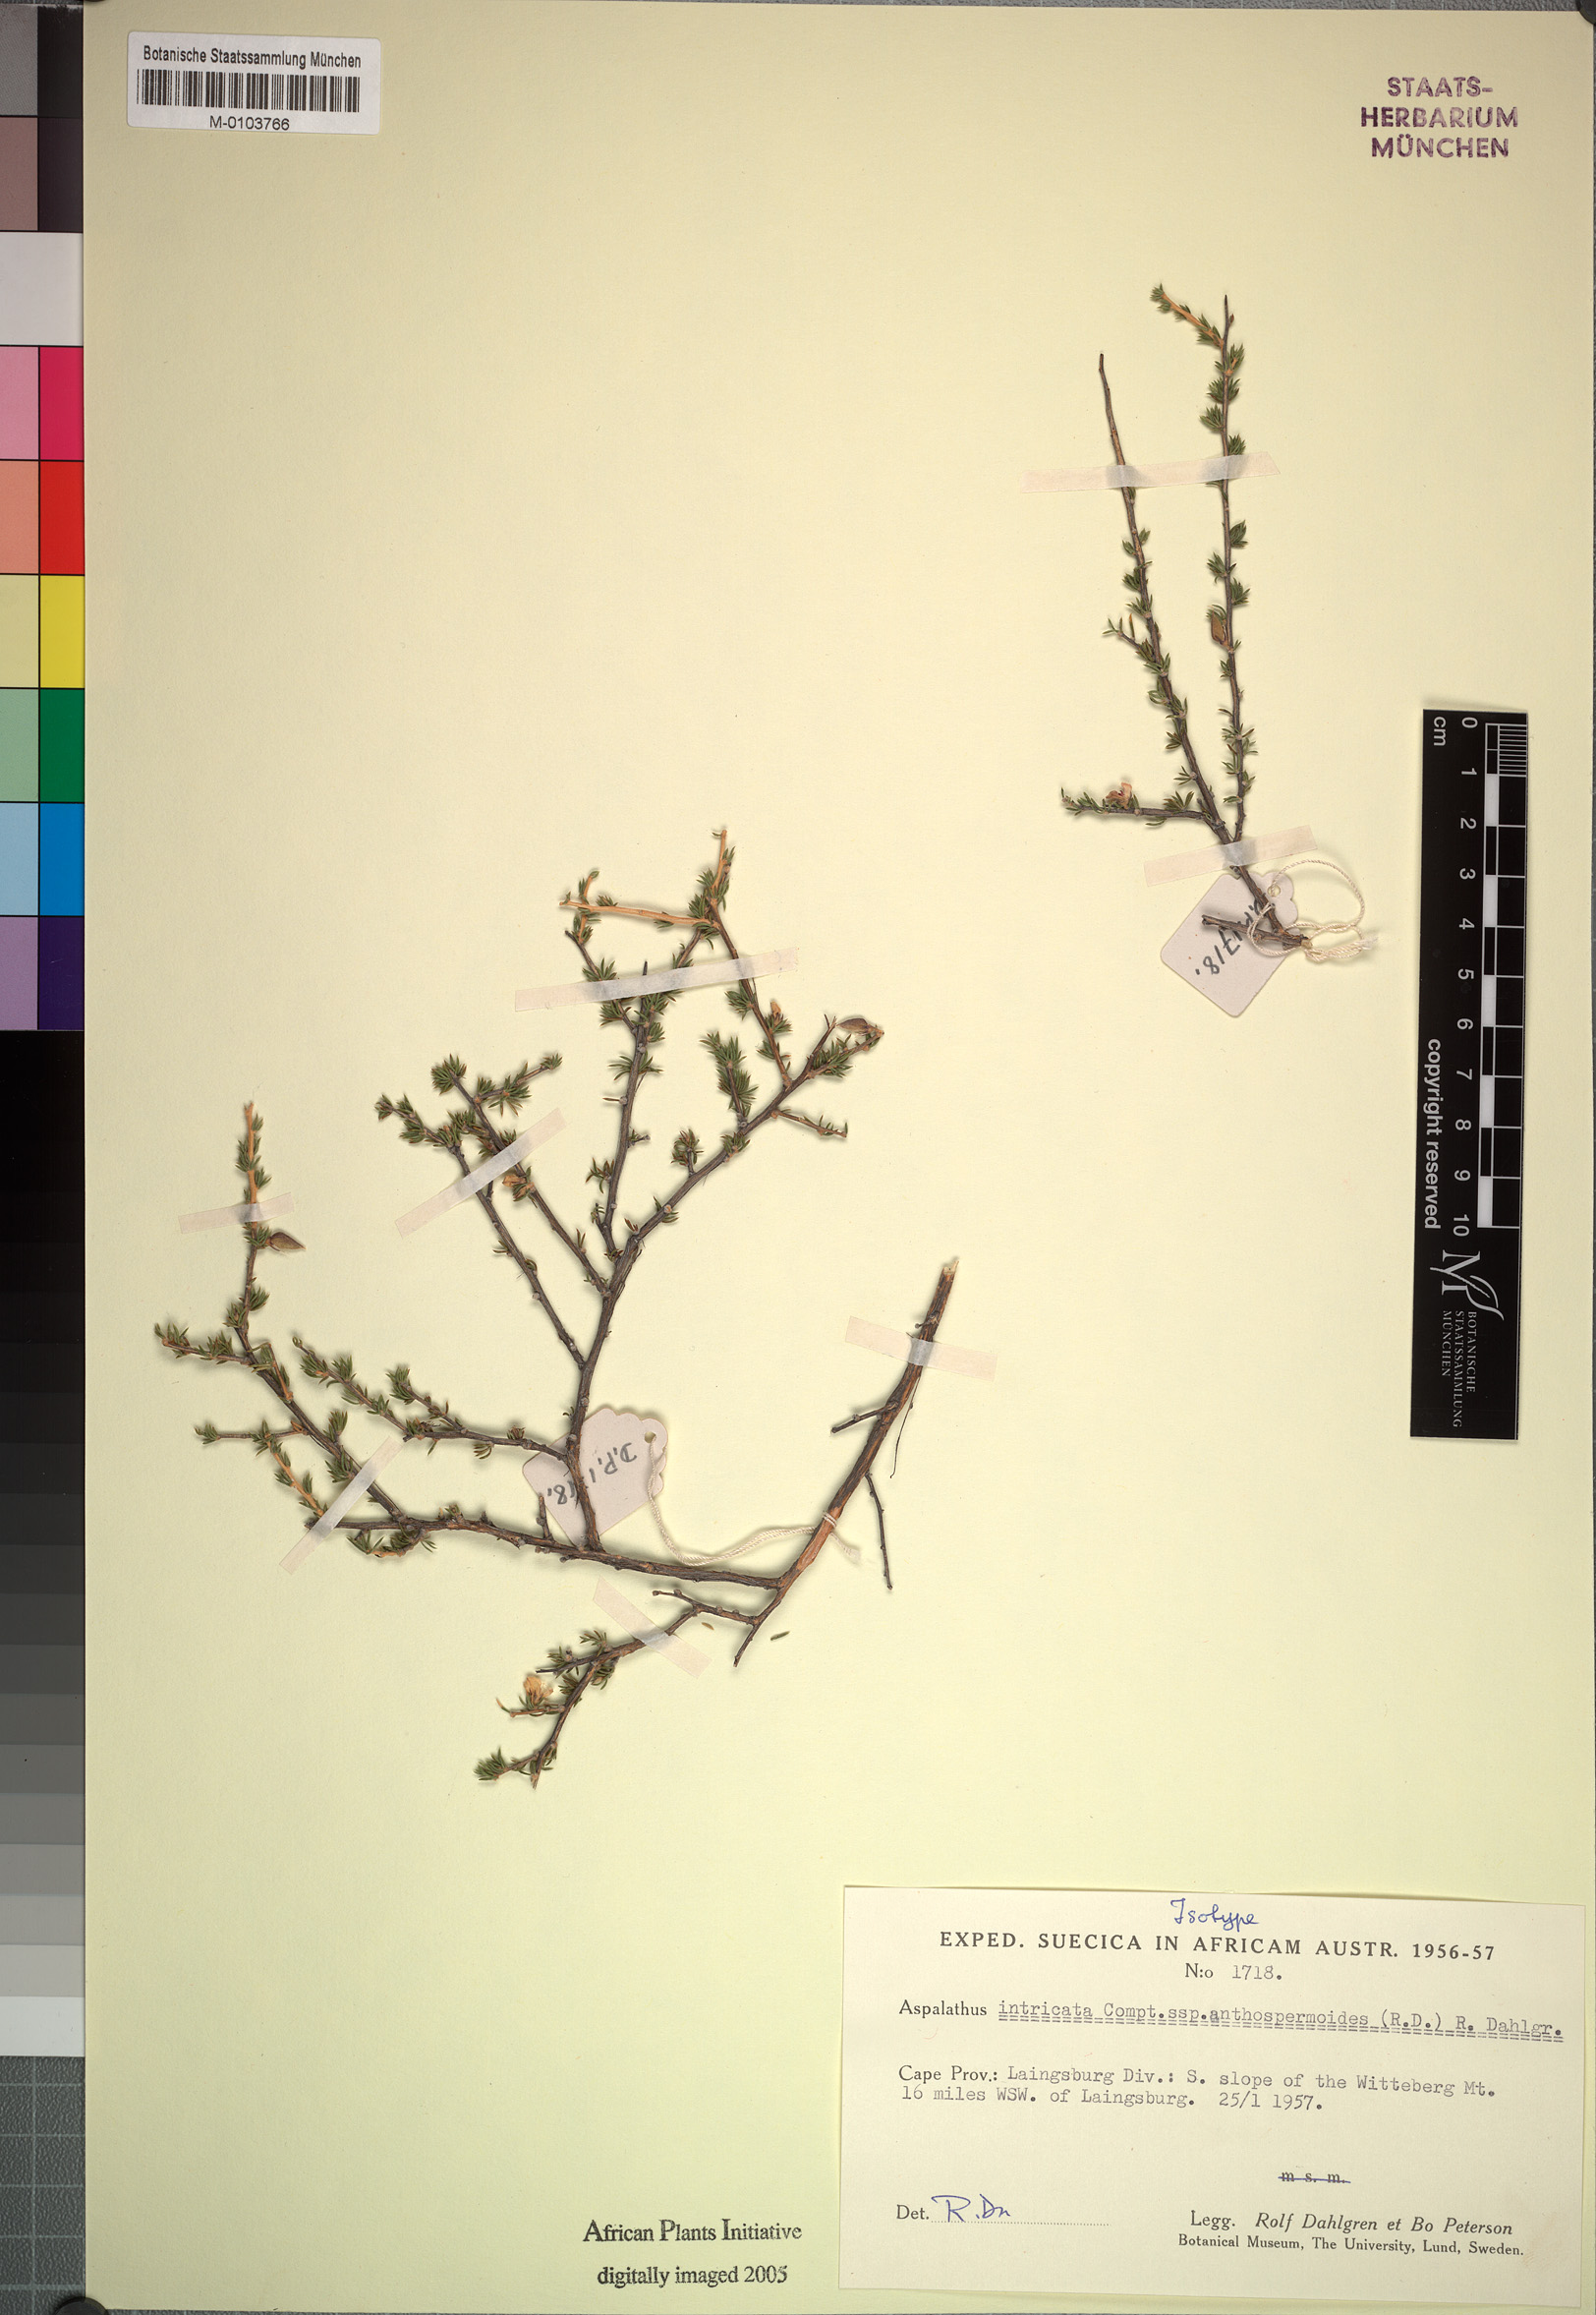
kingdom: Plantae
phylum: Tracheophyta
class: Magnoliopsida
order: Fabales
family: Fabaceae
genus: Aspalathus
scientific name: Aspalathus intricata
